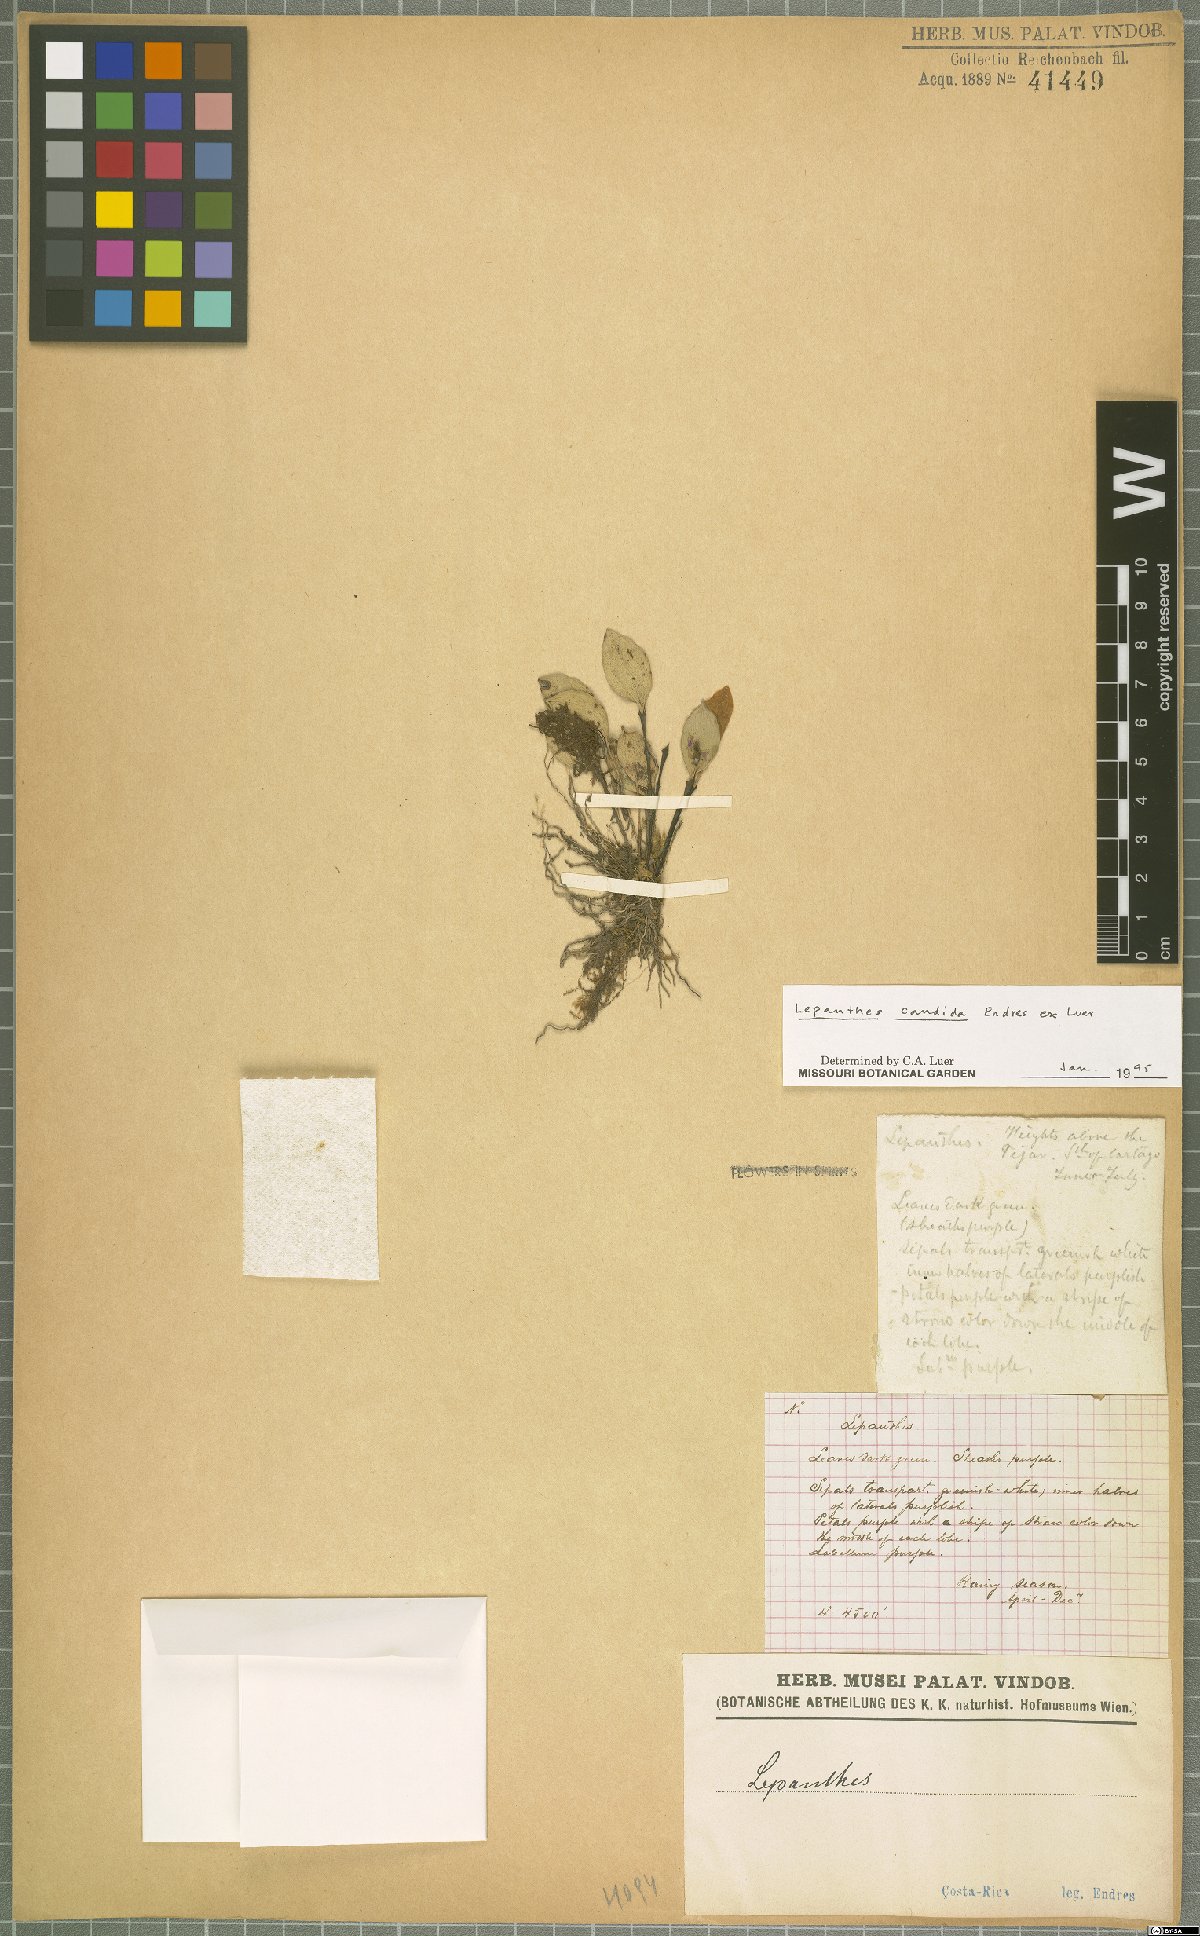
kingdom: Plantae
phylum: Tracheophyta
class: Liliopsida
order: Asparagales
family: Orchidaceae
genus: Lepanthes
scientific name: Lepanthes candida
